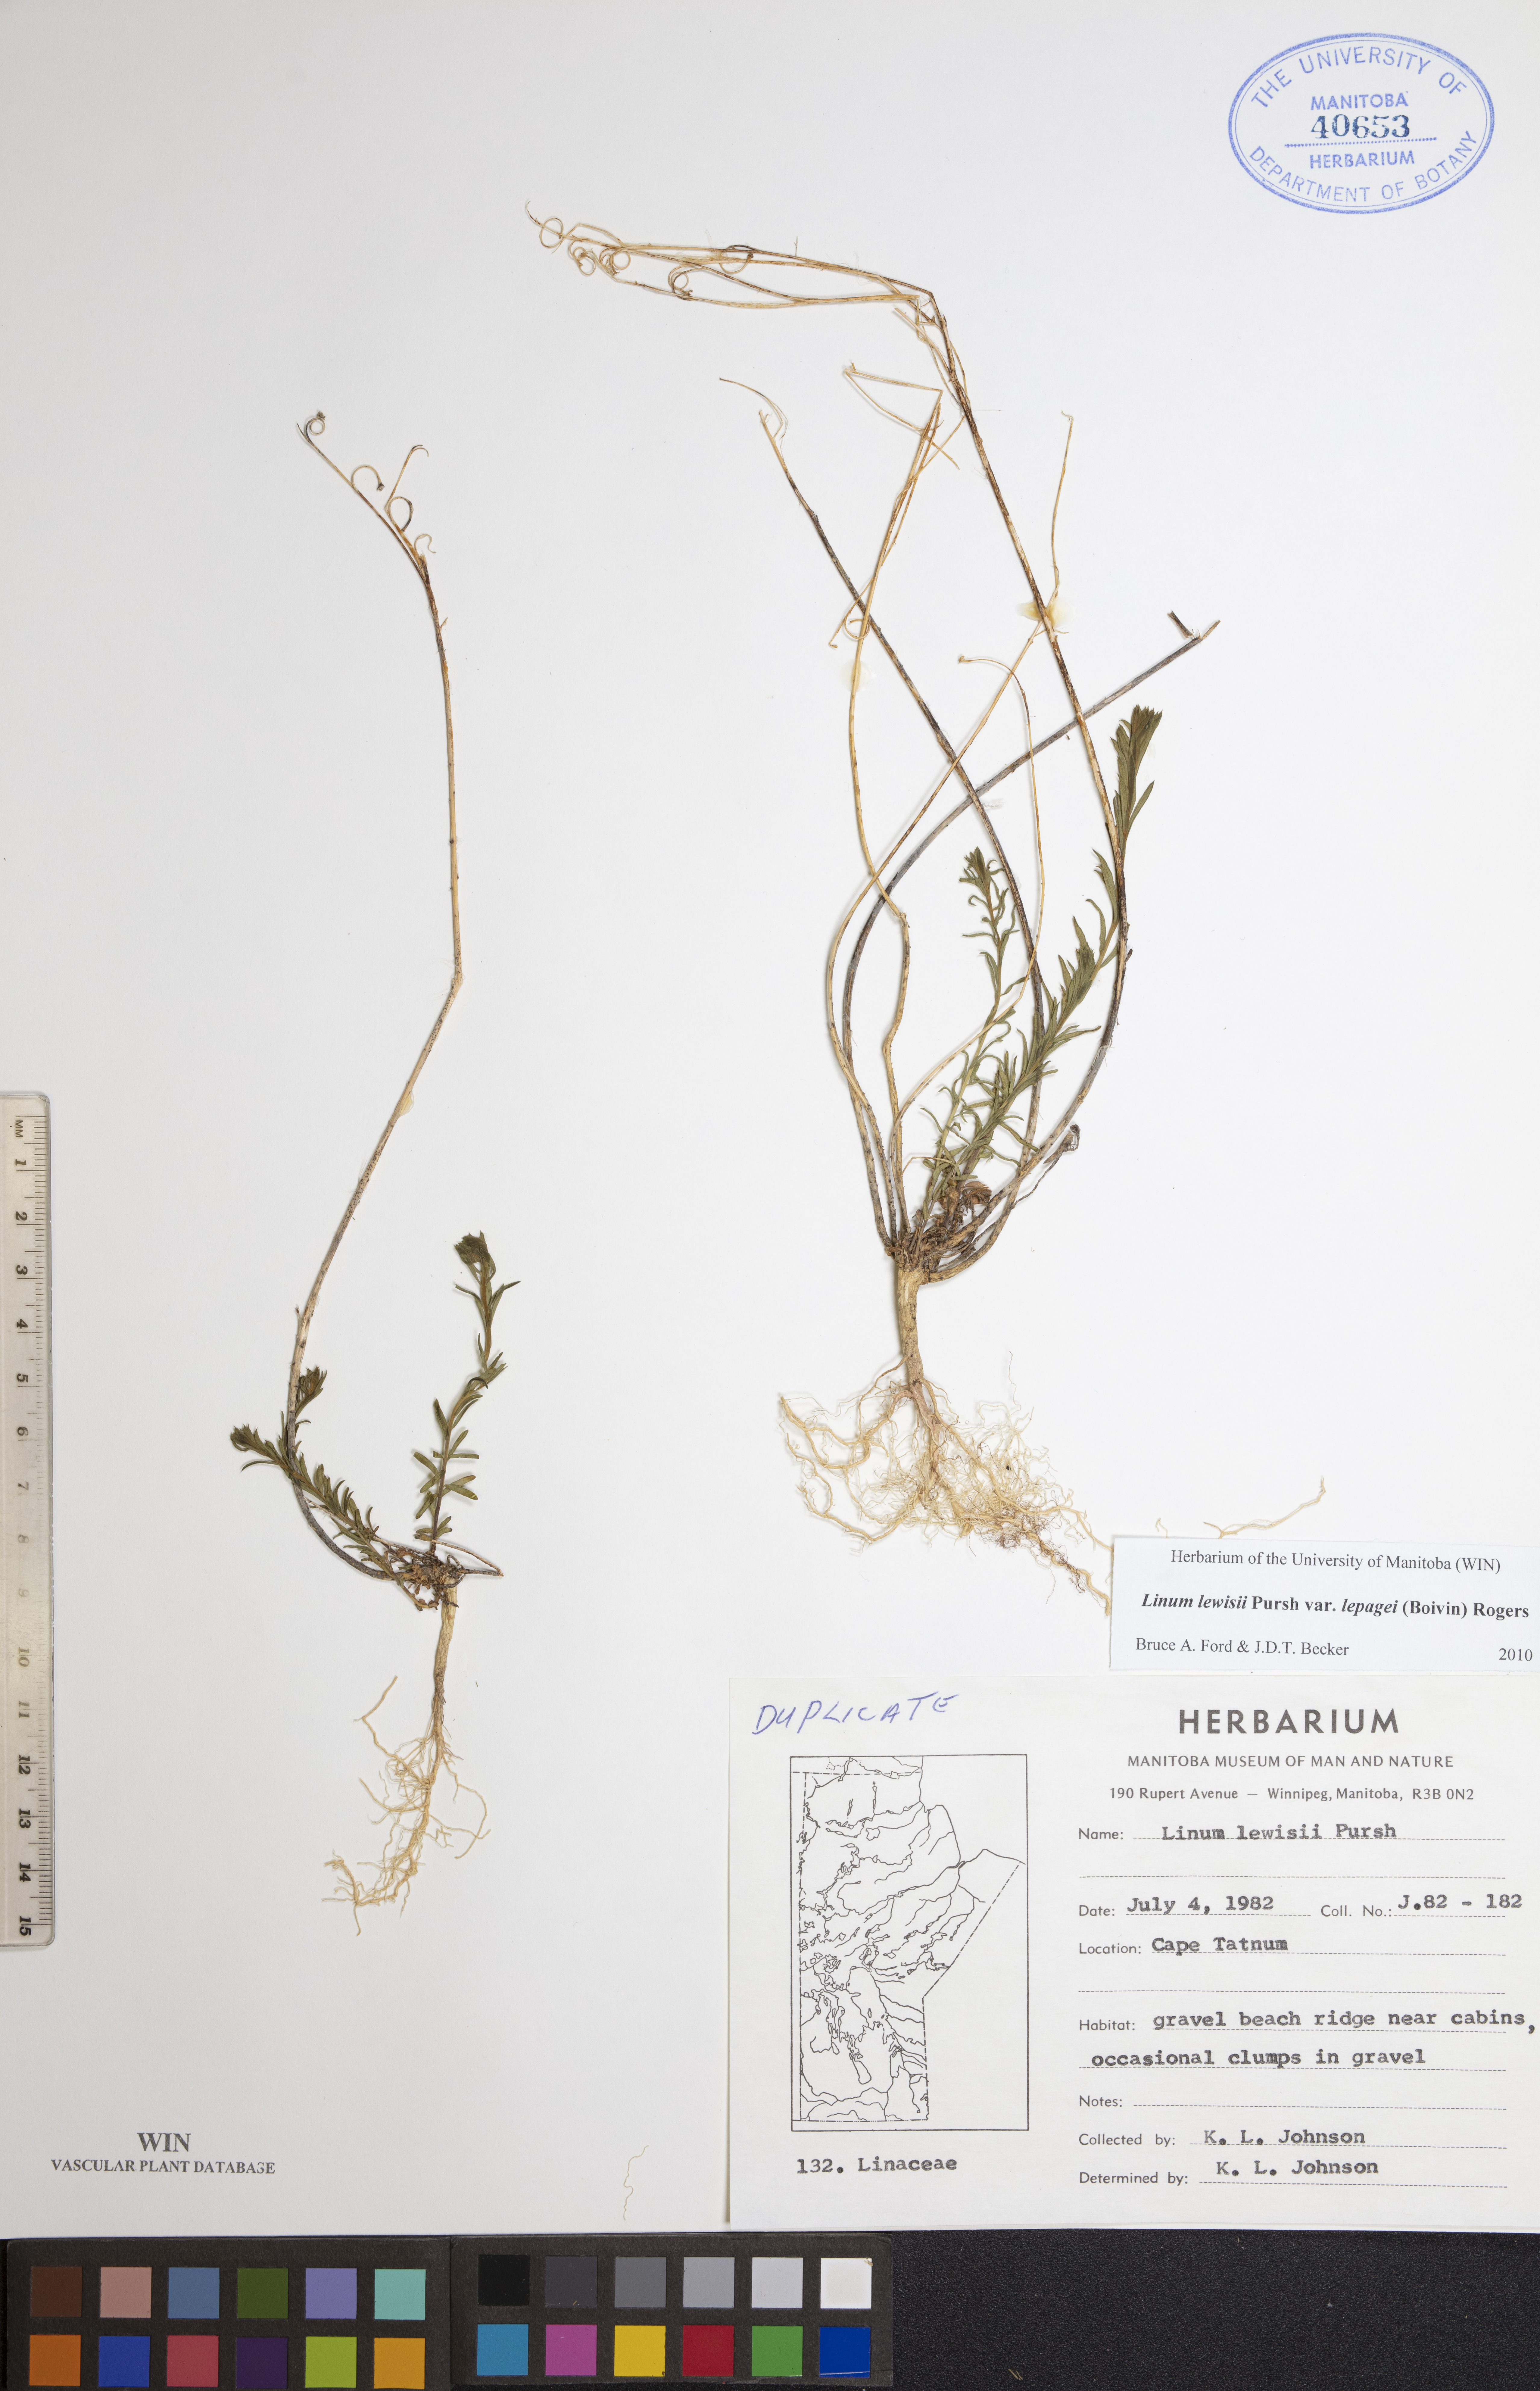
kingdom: Plantae
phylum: Tracheophyta
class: Magnoliopsida
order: Malpighiales
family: Linaceae
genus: Linum
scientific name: Linum lewisii
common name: Prairie flax
